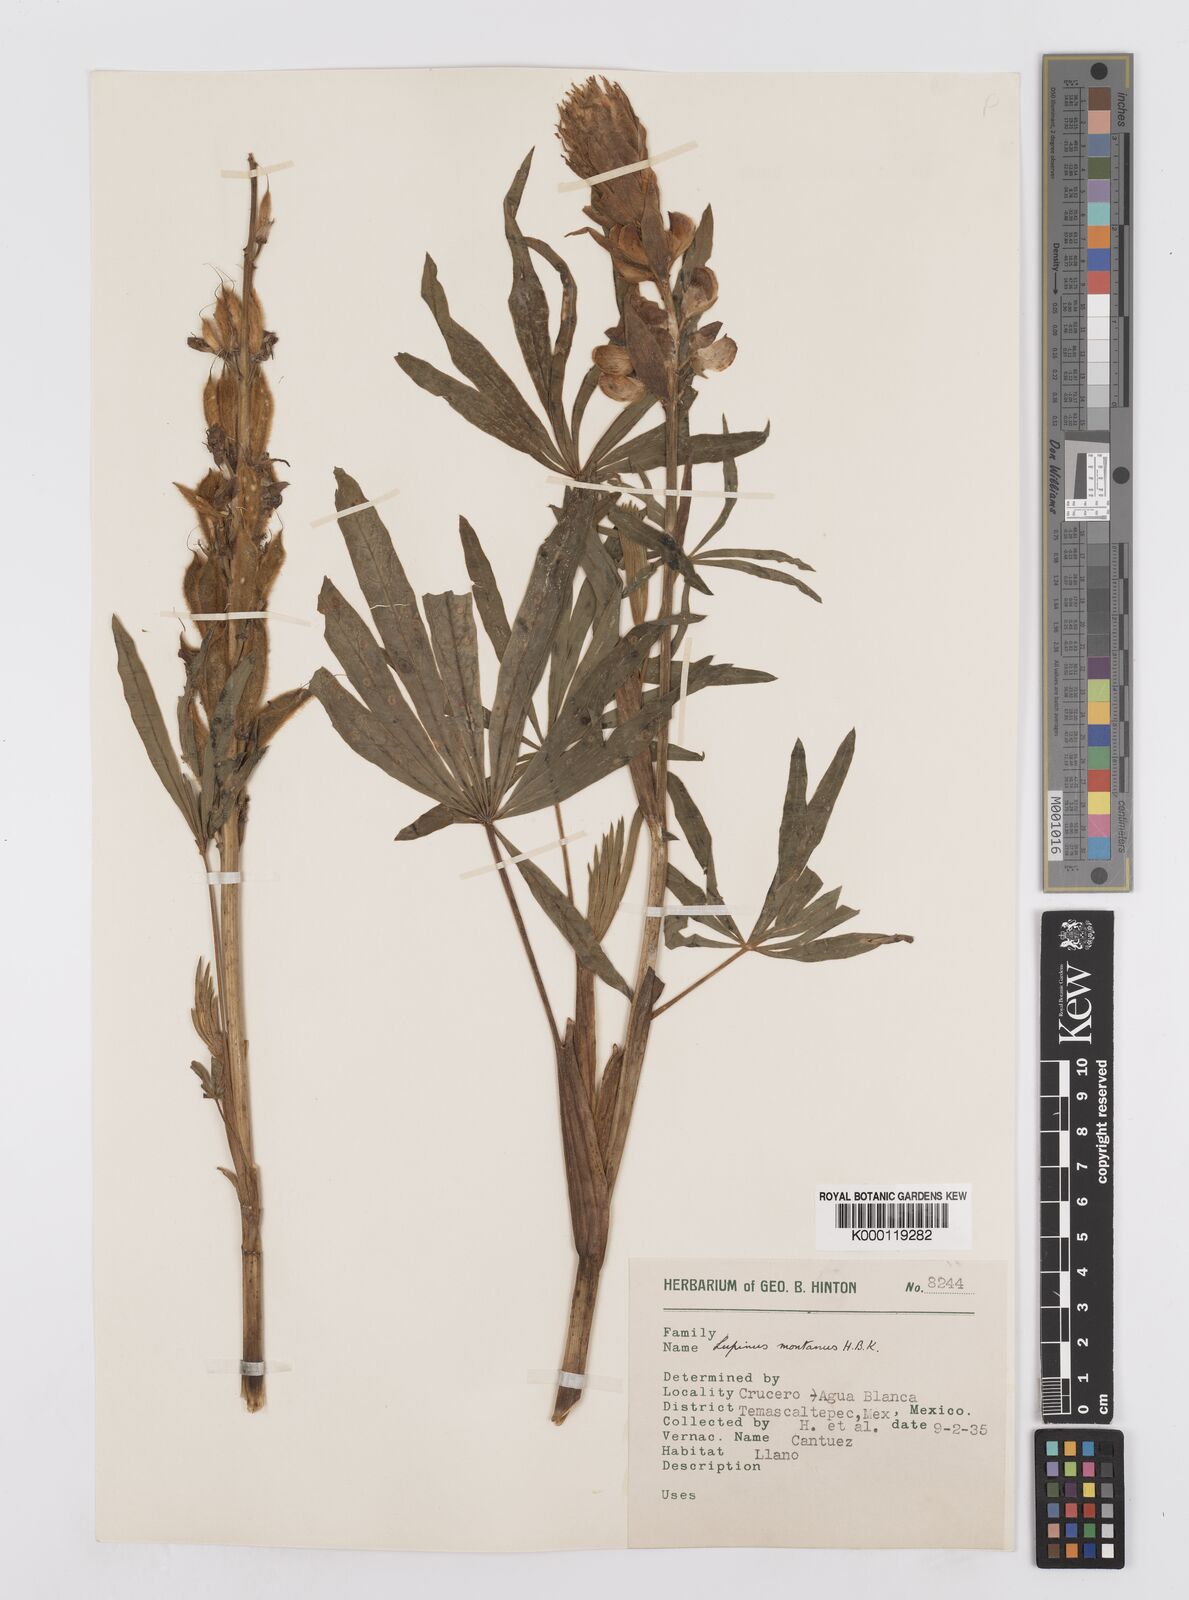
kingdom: Plantae
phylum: Tracheophyta
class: Magnoliopsida
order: Fabales
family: Fabaceae
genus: Lupinus
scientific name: Lupinus montanus
